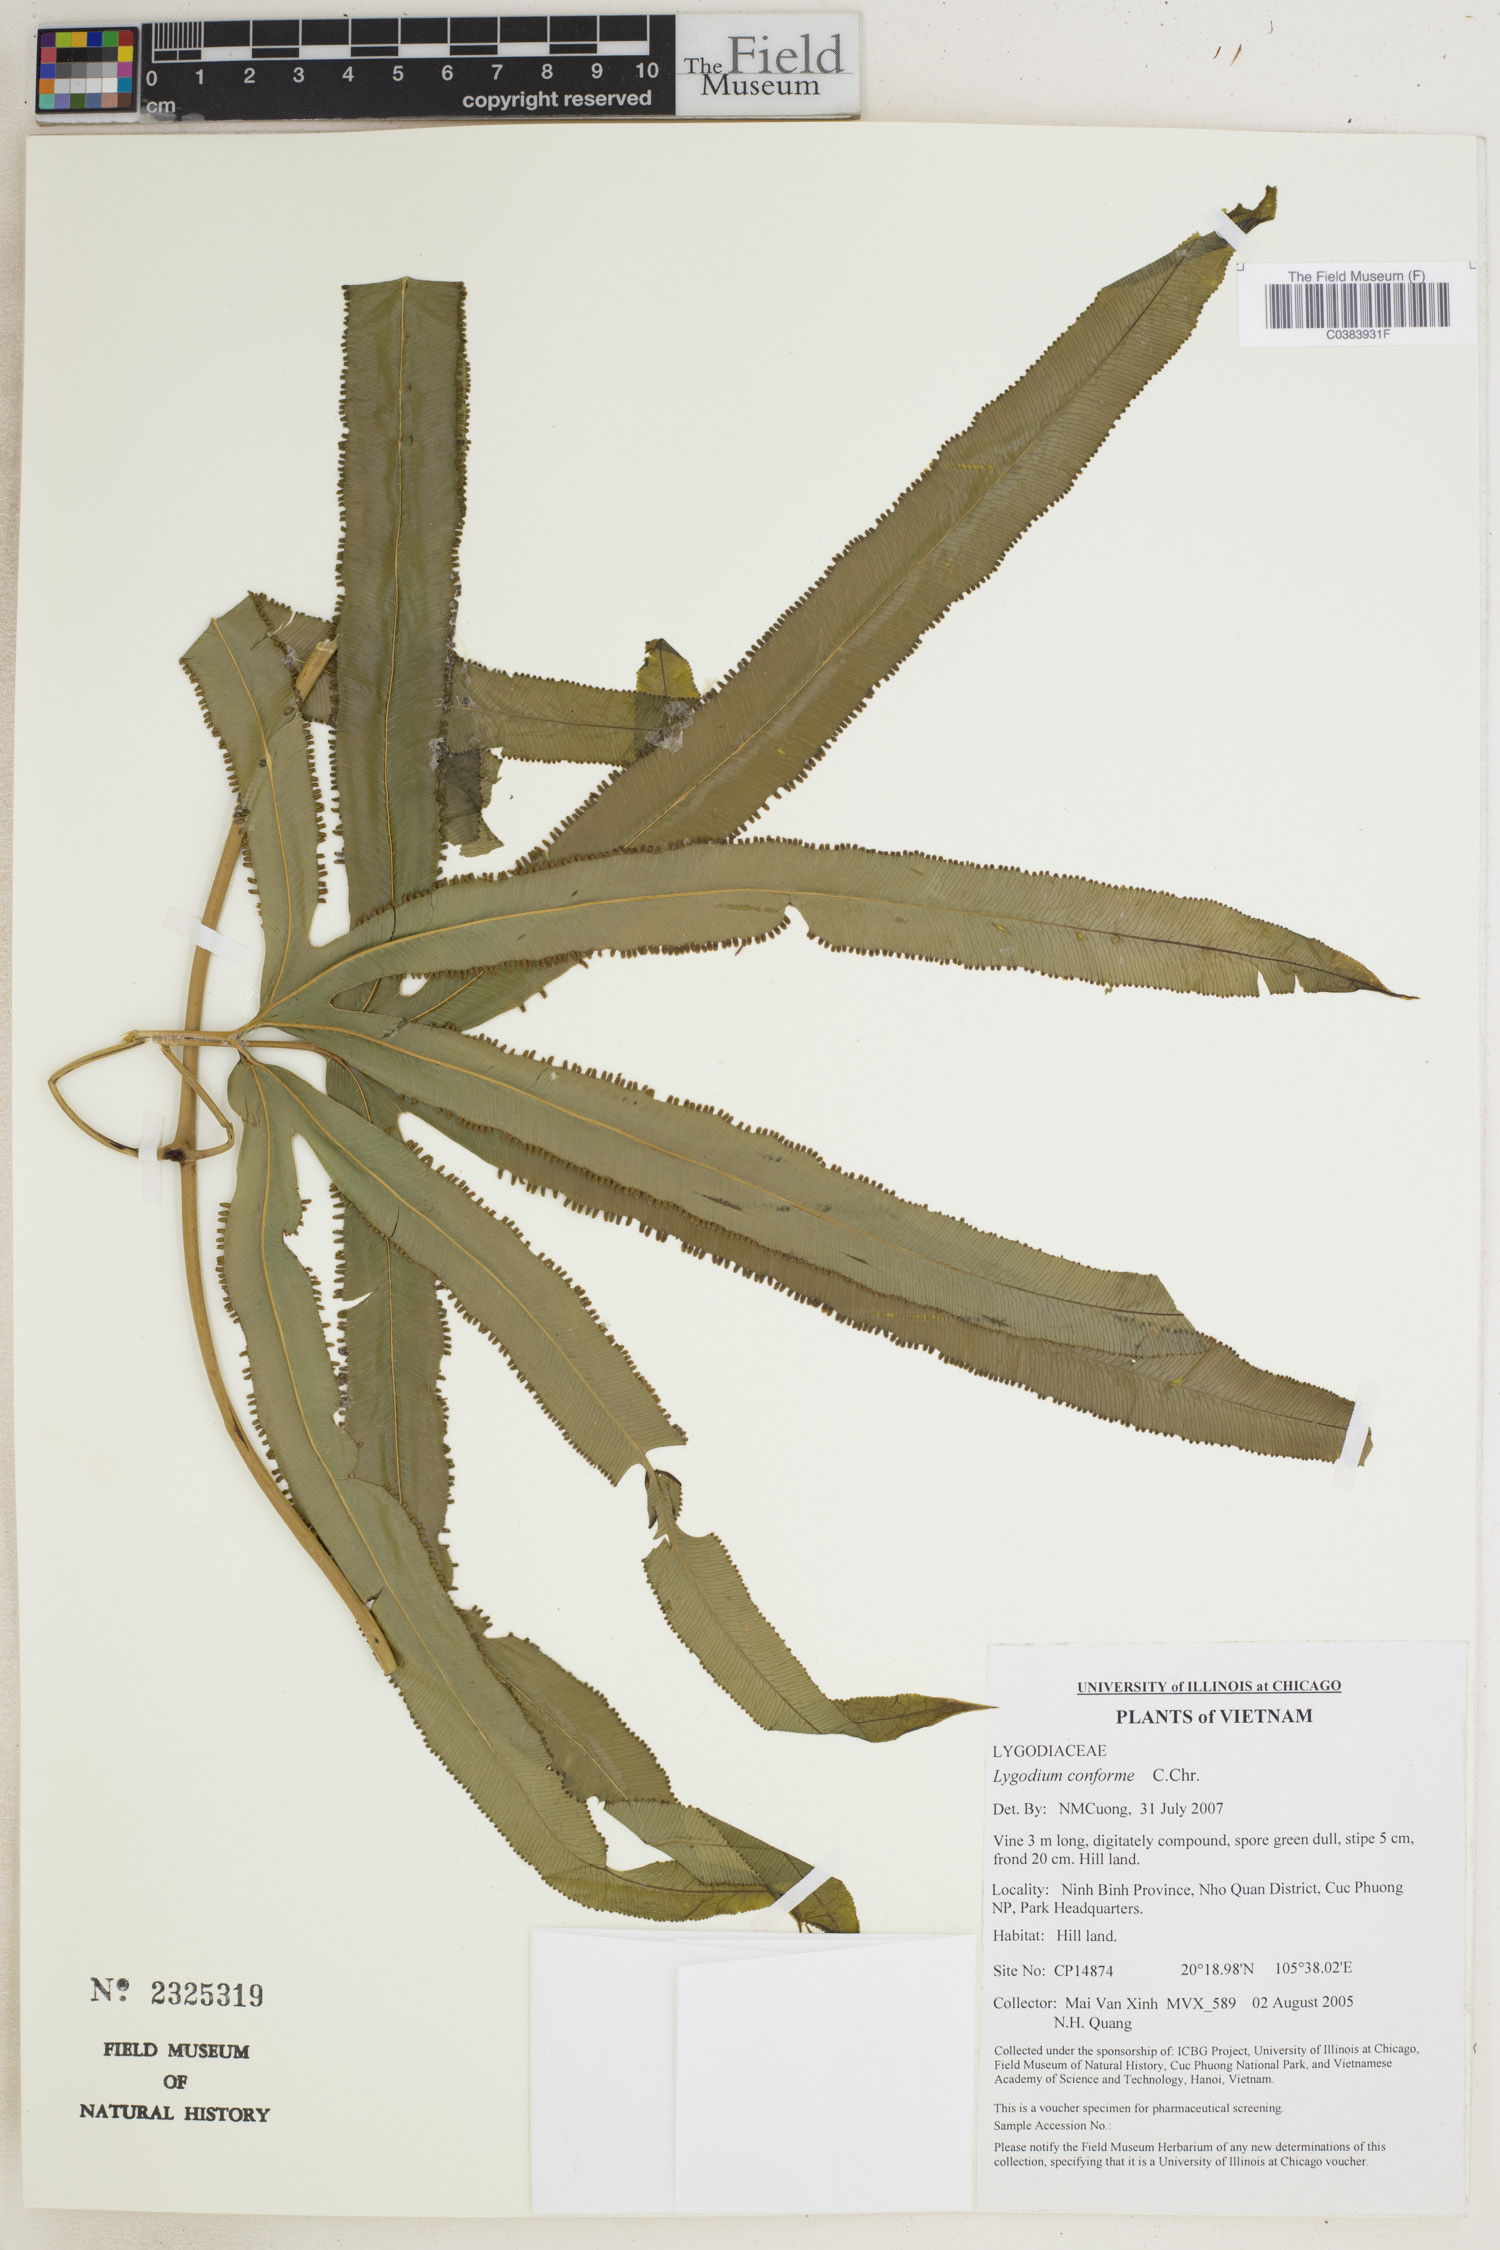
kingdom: Plantae
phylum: Tracheophyta
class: Polypodiopsida
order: Schizaeales
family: Lygodiaceae
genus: Lygodium
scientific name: Lygodium circinnatum
